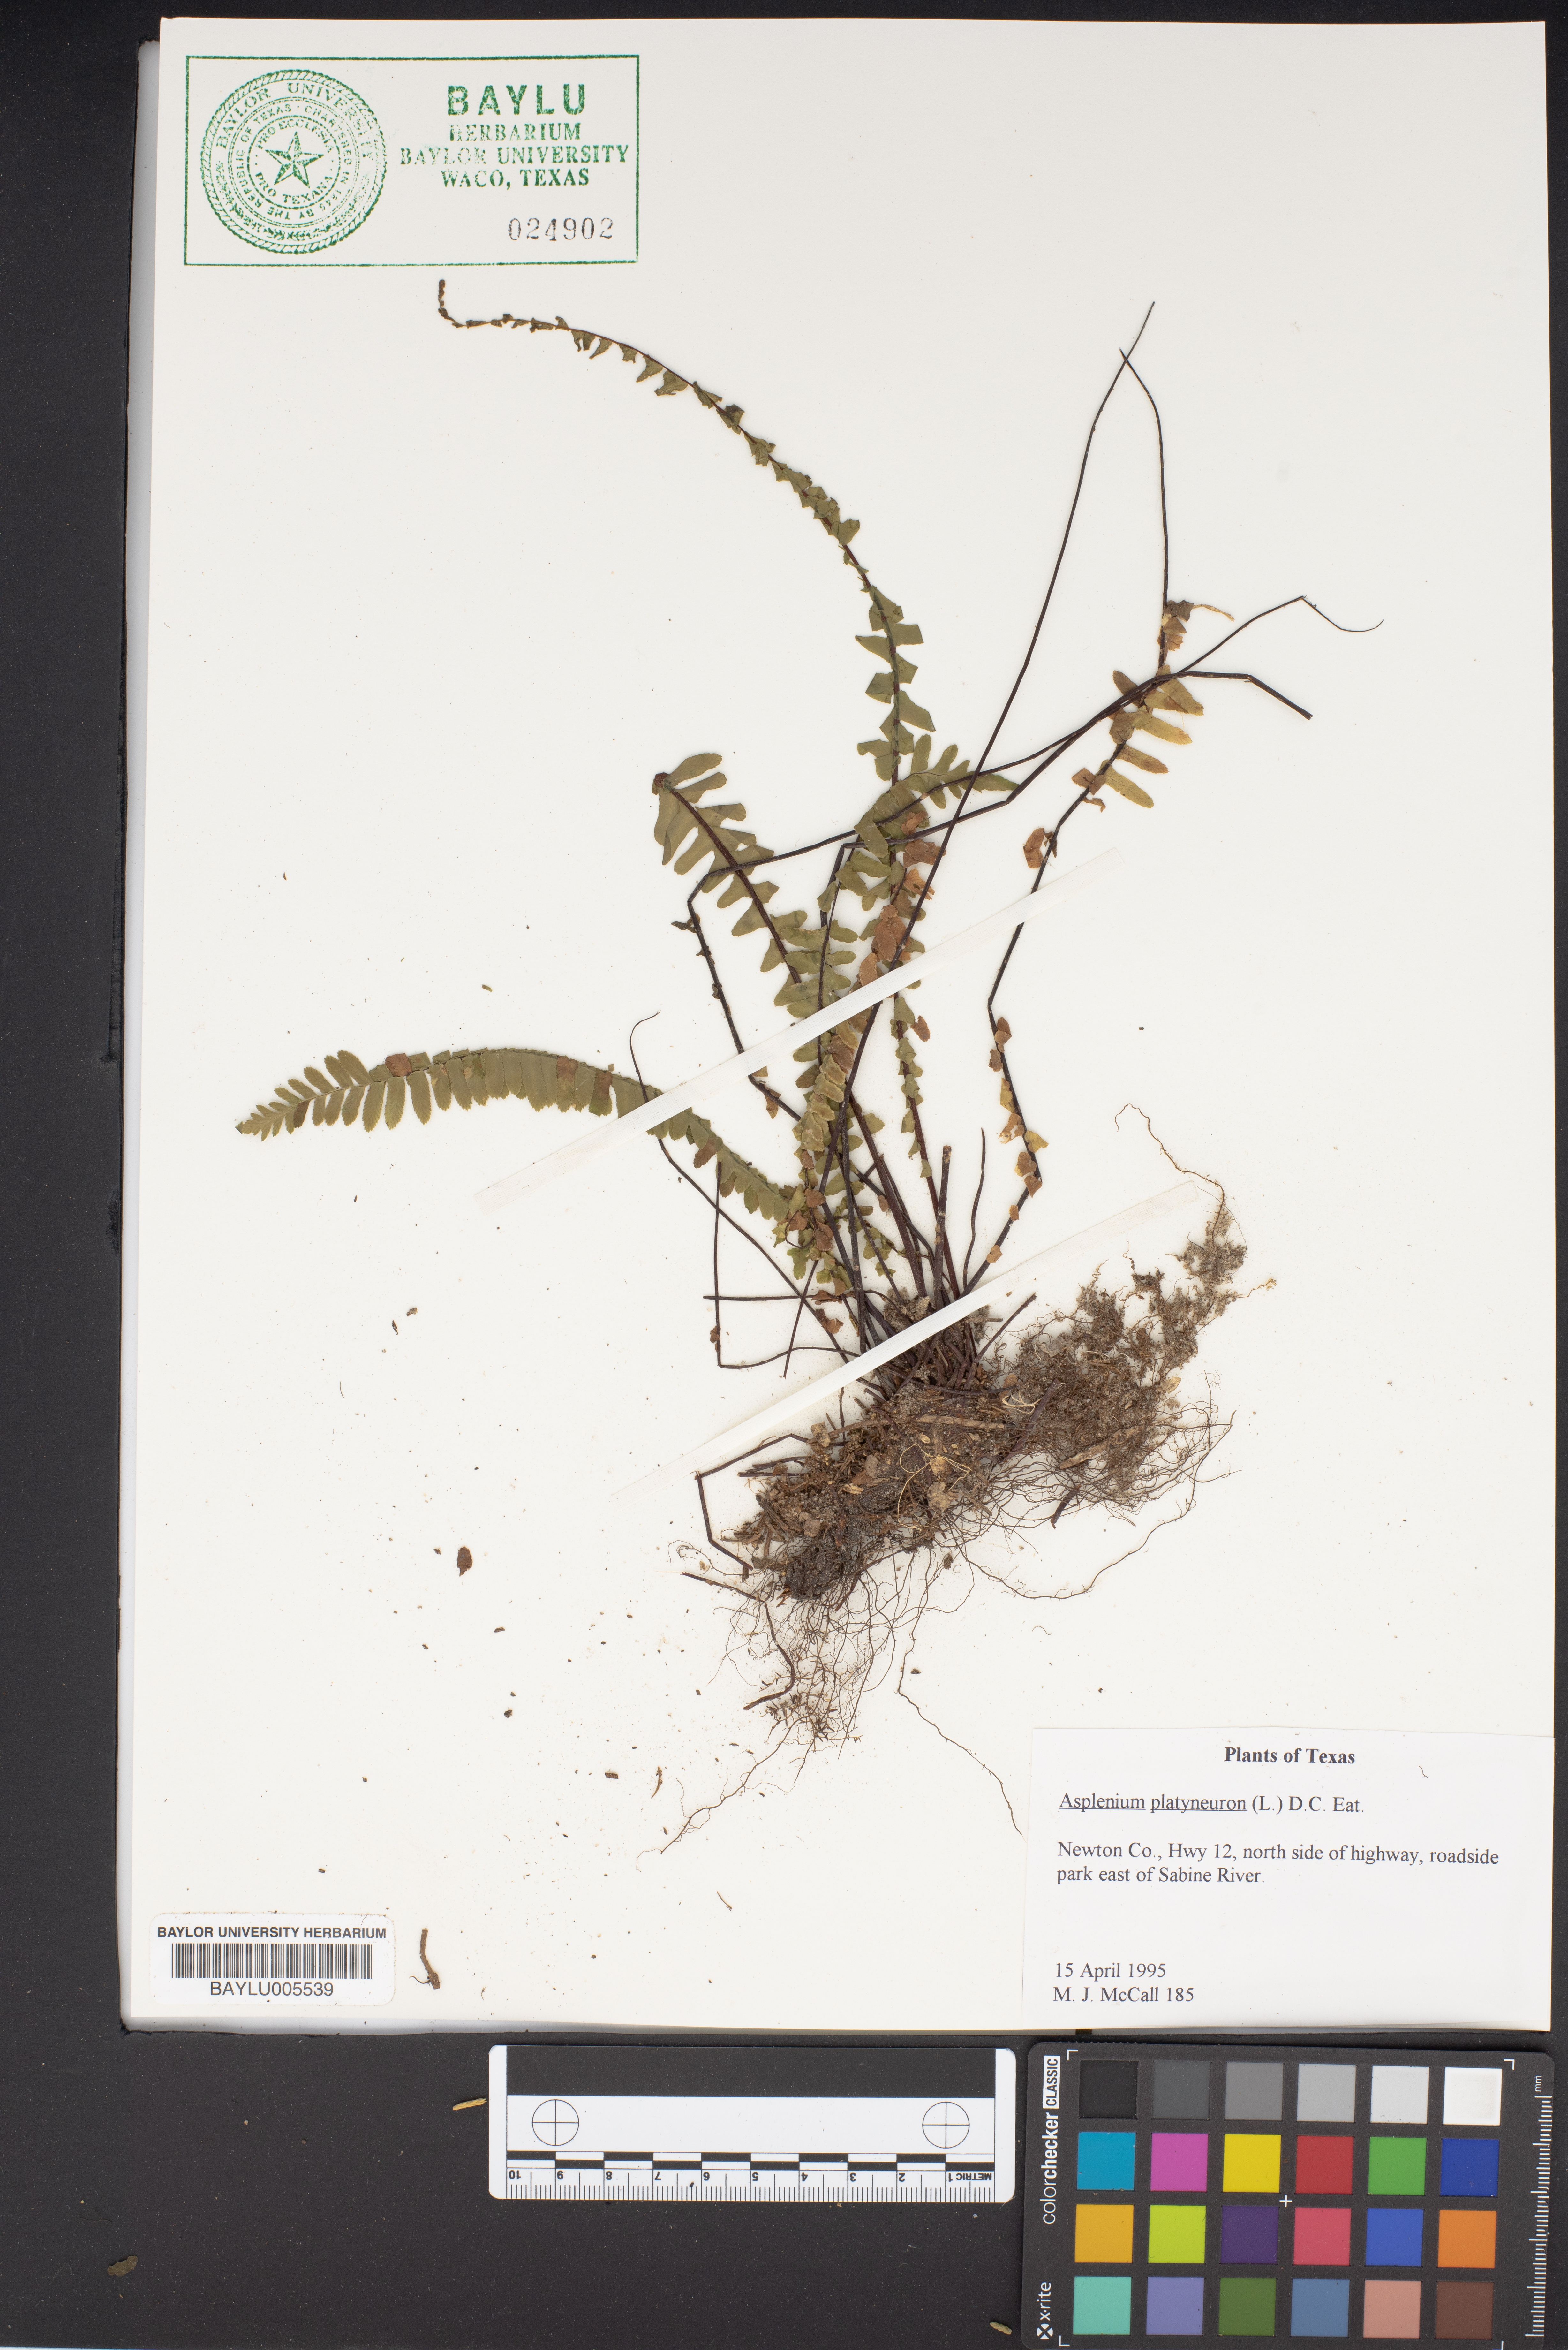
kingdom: Plantae
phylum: Tracheophyta
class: Polypodiopsida
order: Polypodiales
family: Aspleniaceae
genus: Asplenium
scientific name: Asplenium platyneuron
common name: Ebony spleenwort
